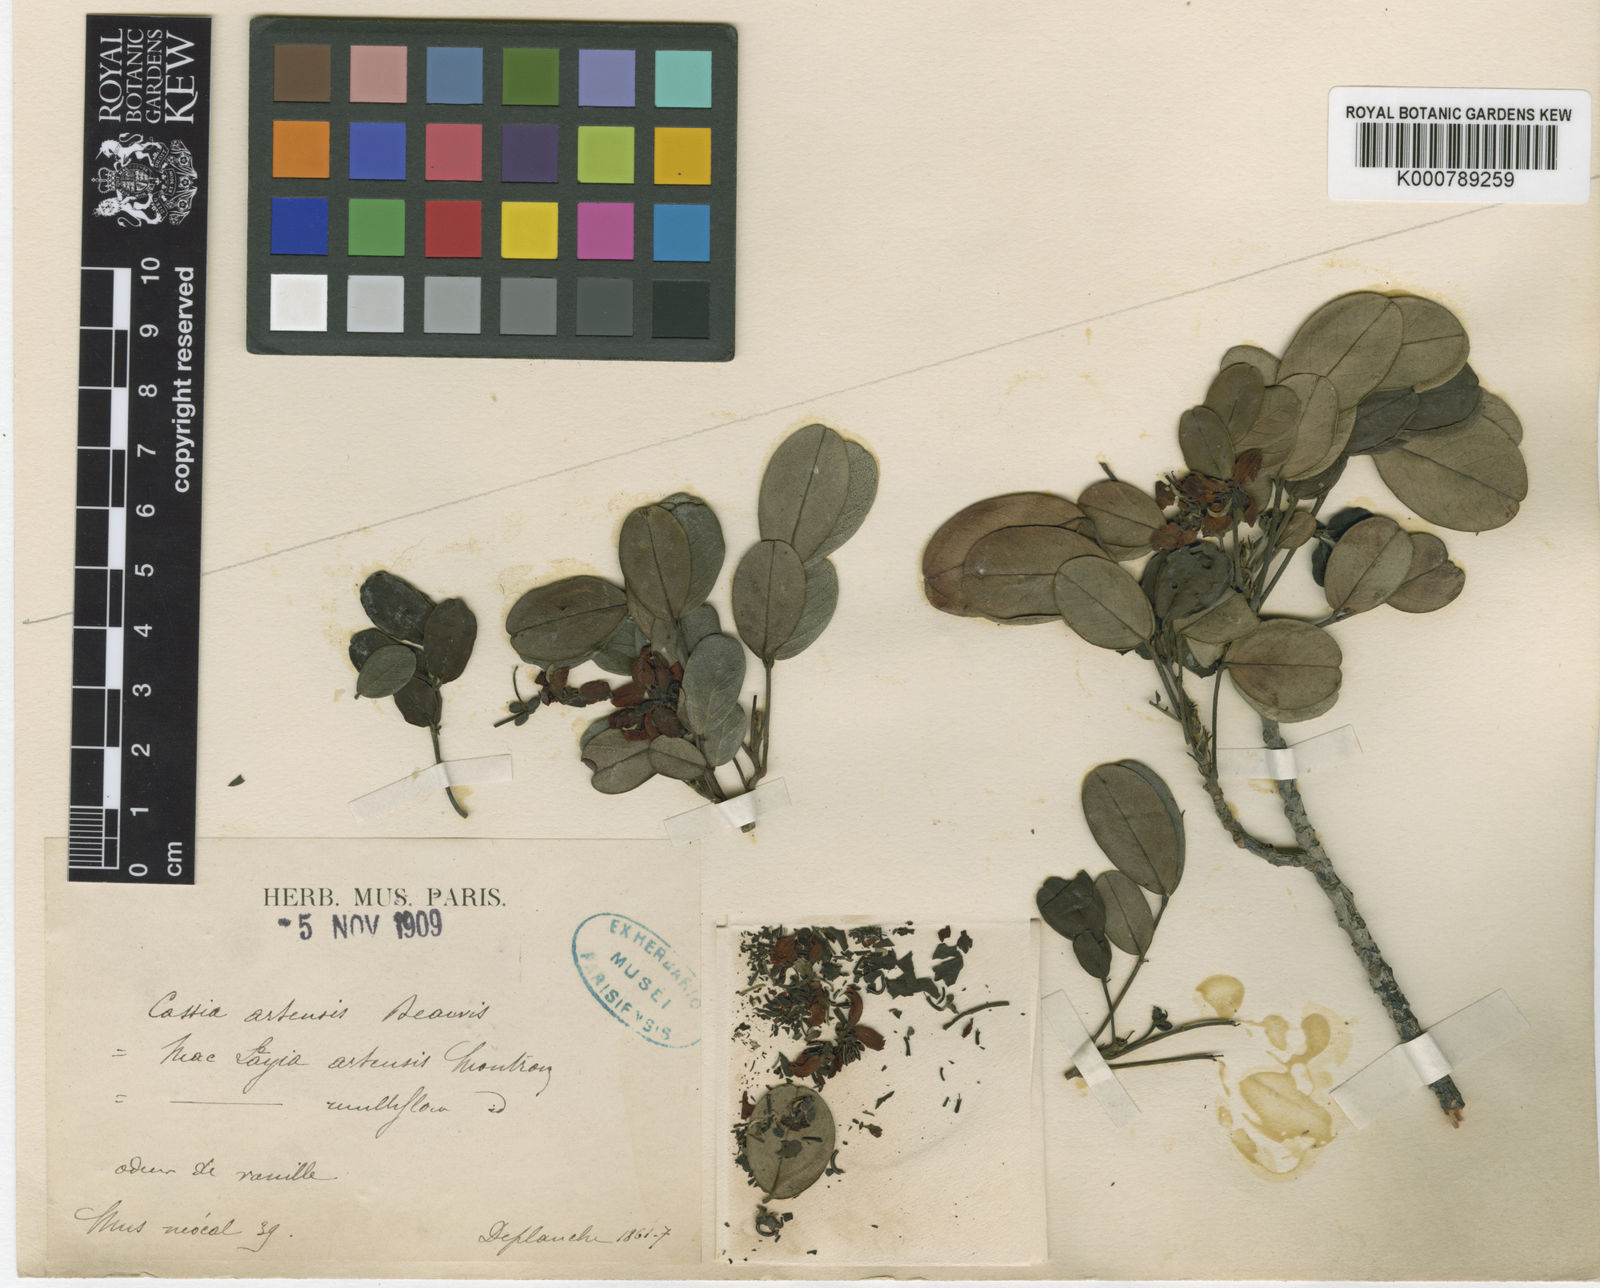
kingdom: Plantae
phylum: Tracheophyta
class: Magnoliopsida
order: Fabales
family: Fabaceae
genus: Cassia
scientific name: Cassia artensis
